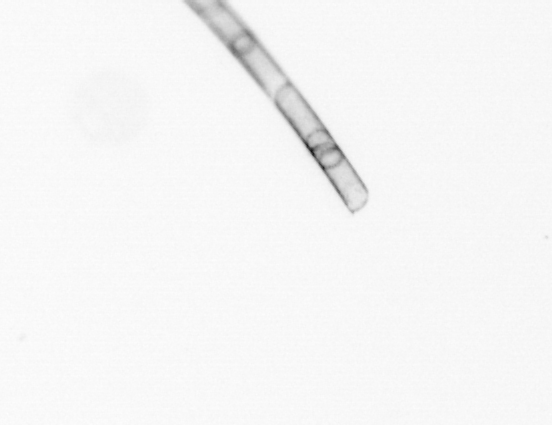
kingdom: Chromista
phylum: Ochrophyta
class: Bacillariophyceae
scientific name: Bacillariophyceae
